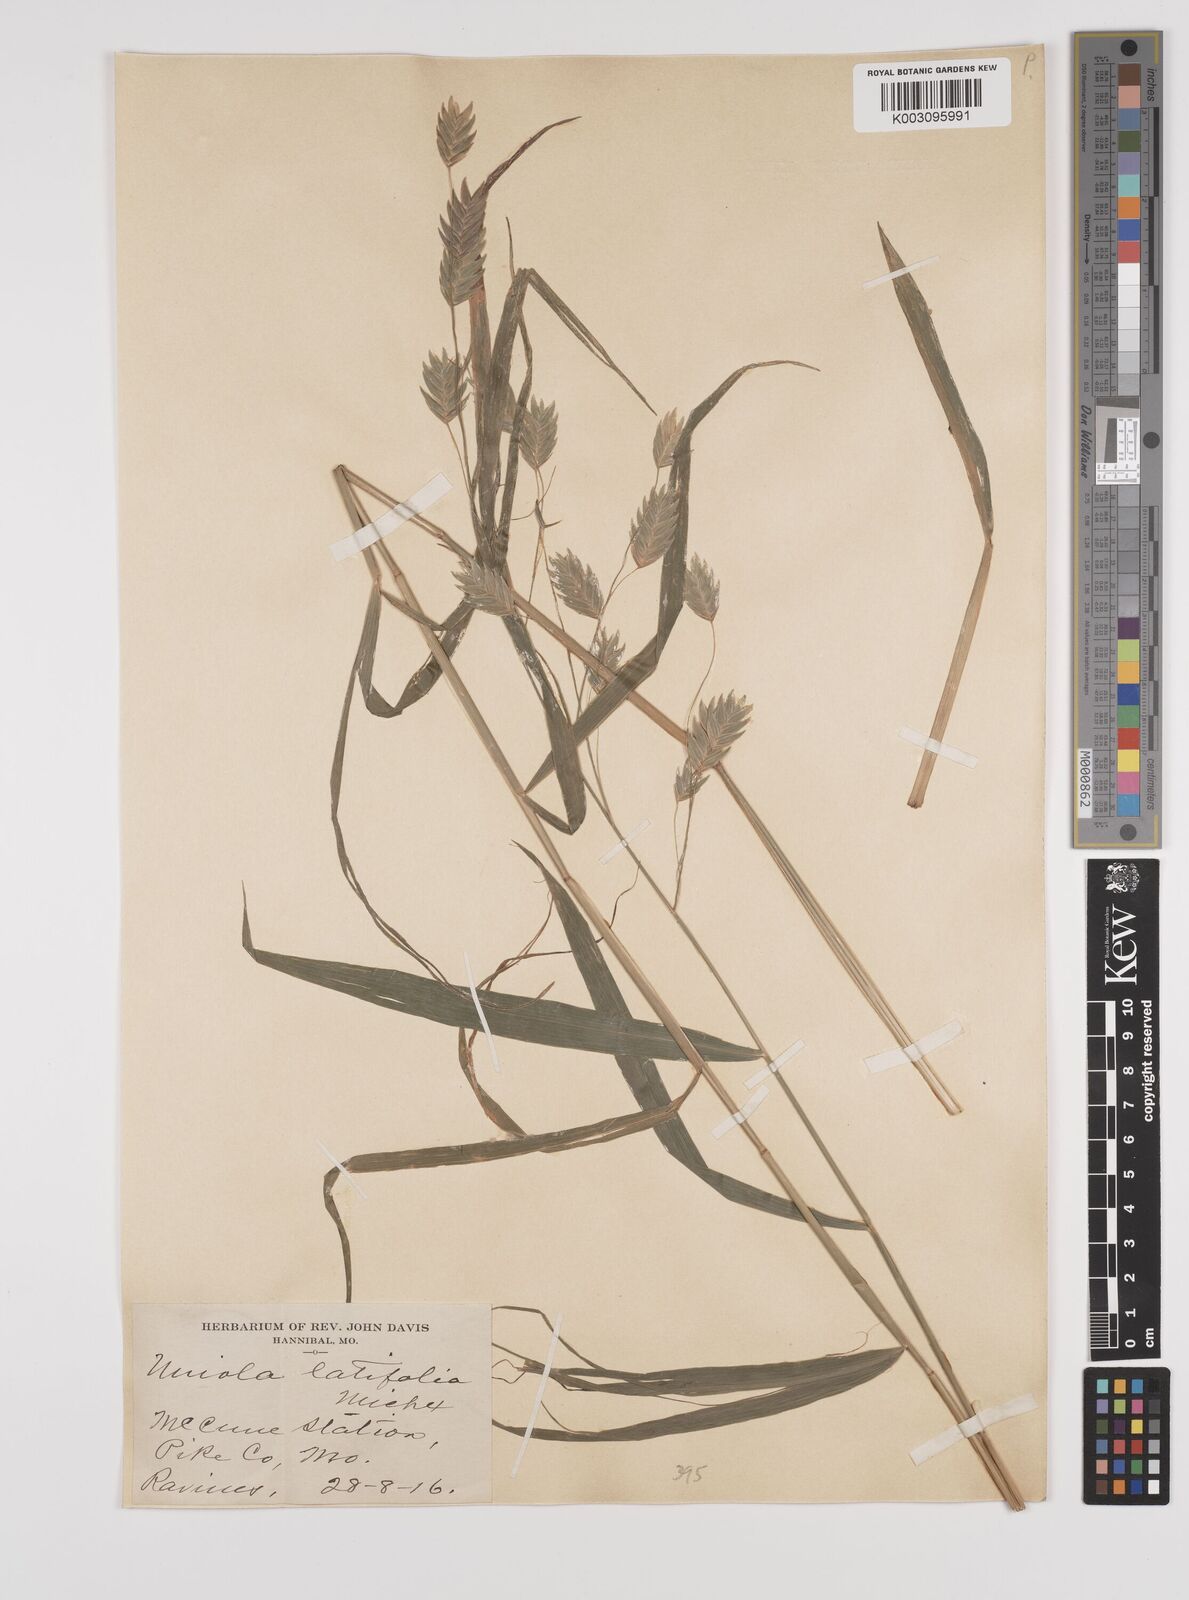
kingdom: Plantae
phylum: Tracheophyta
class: Liliopsida
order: Poales
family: Poaceae
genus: Chasmanthium
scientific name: Chasmanthium latifolium
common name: Broad-leaved chasmanthium
